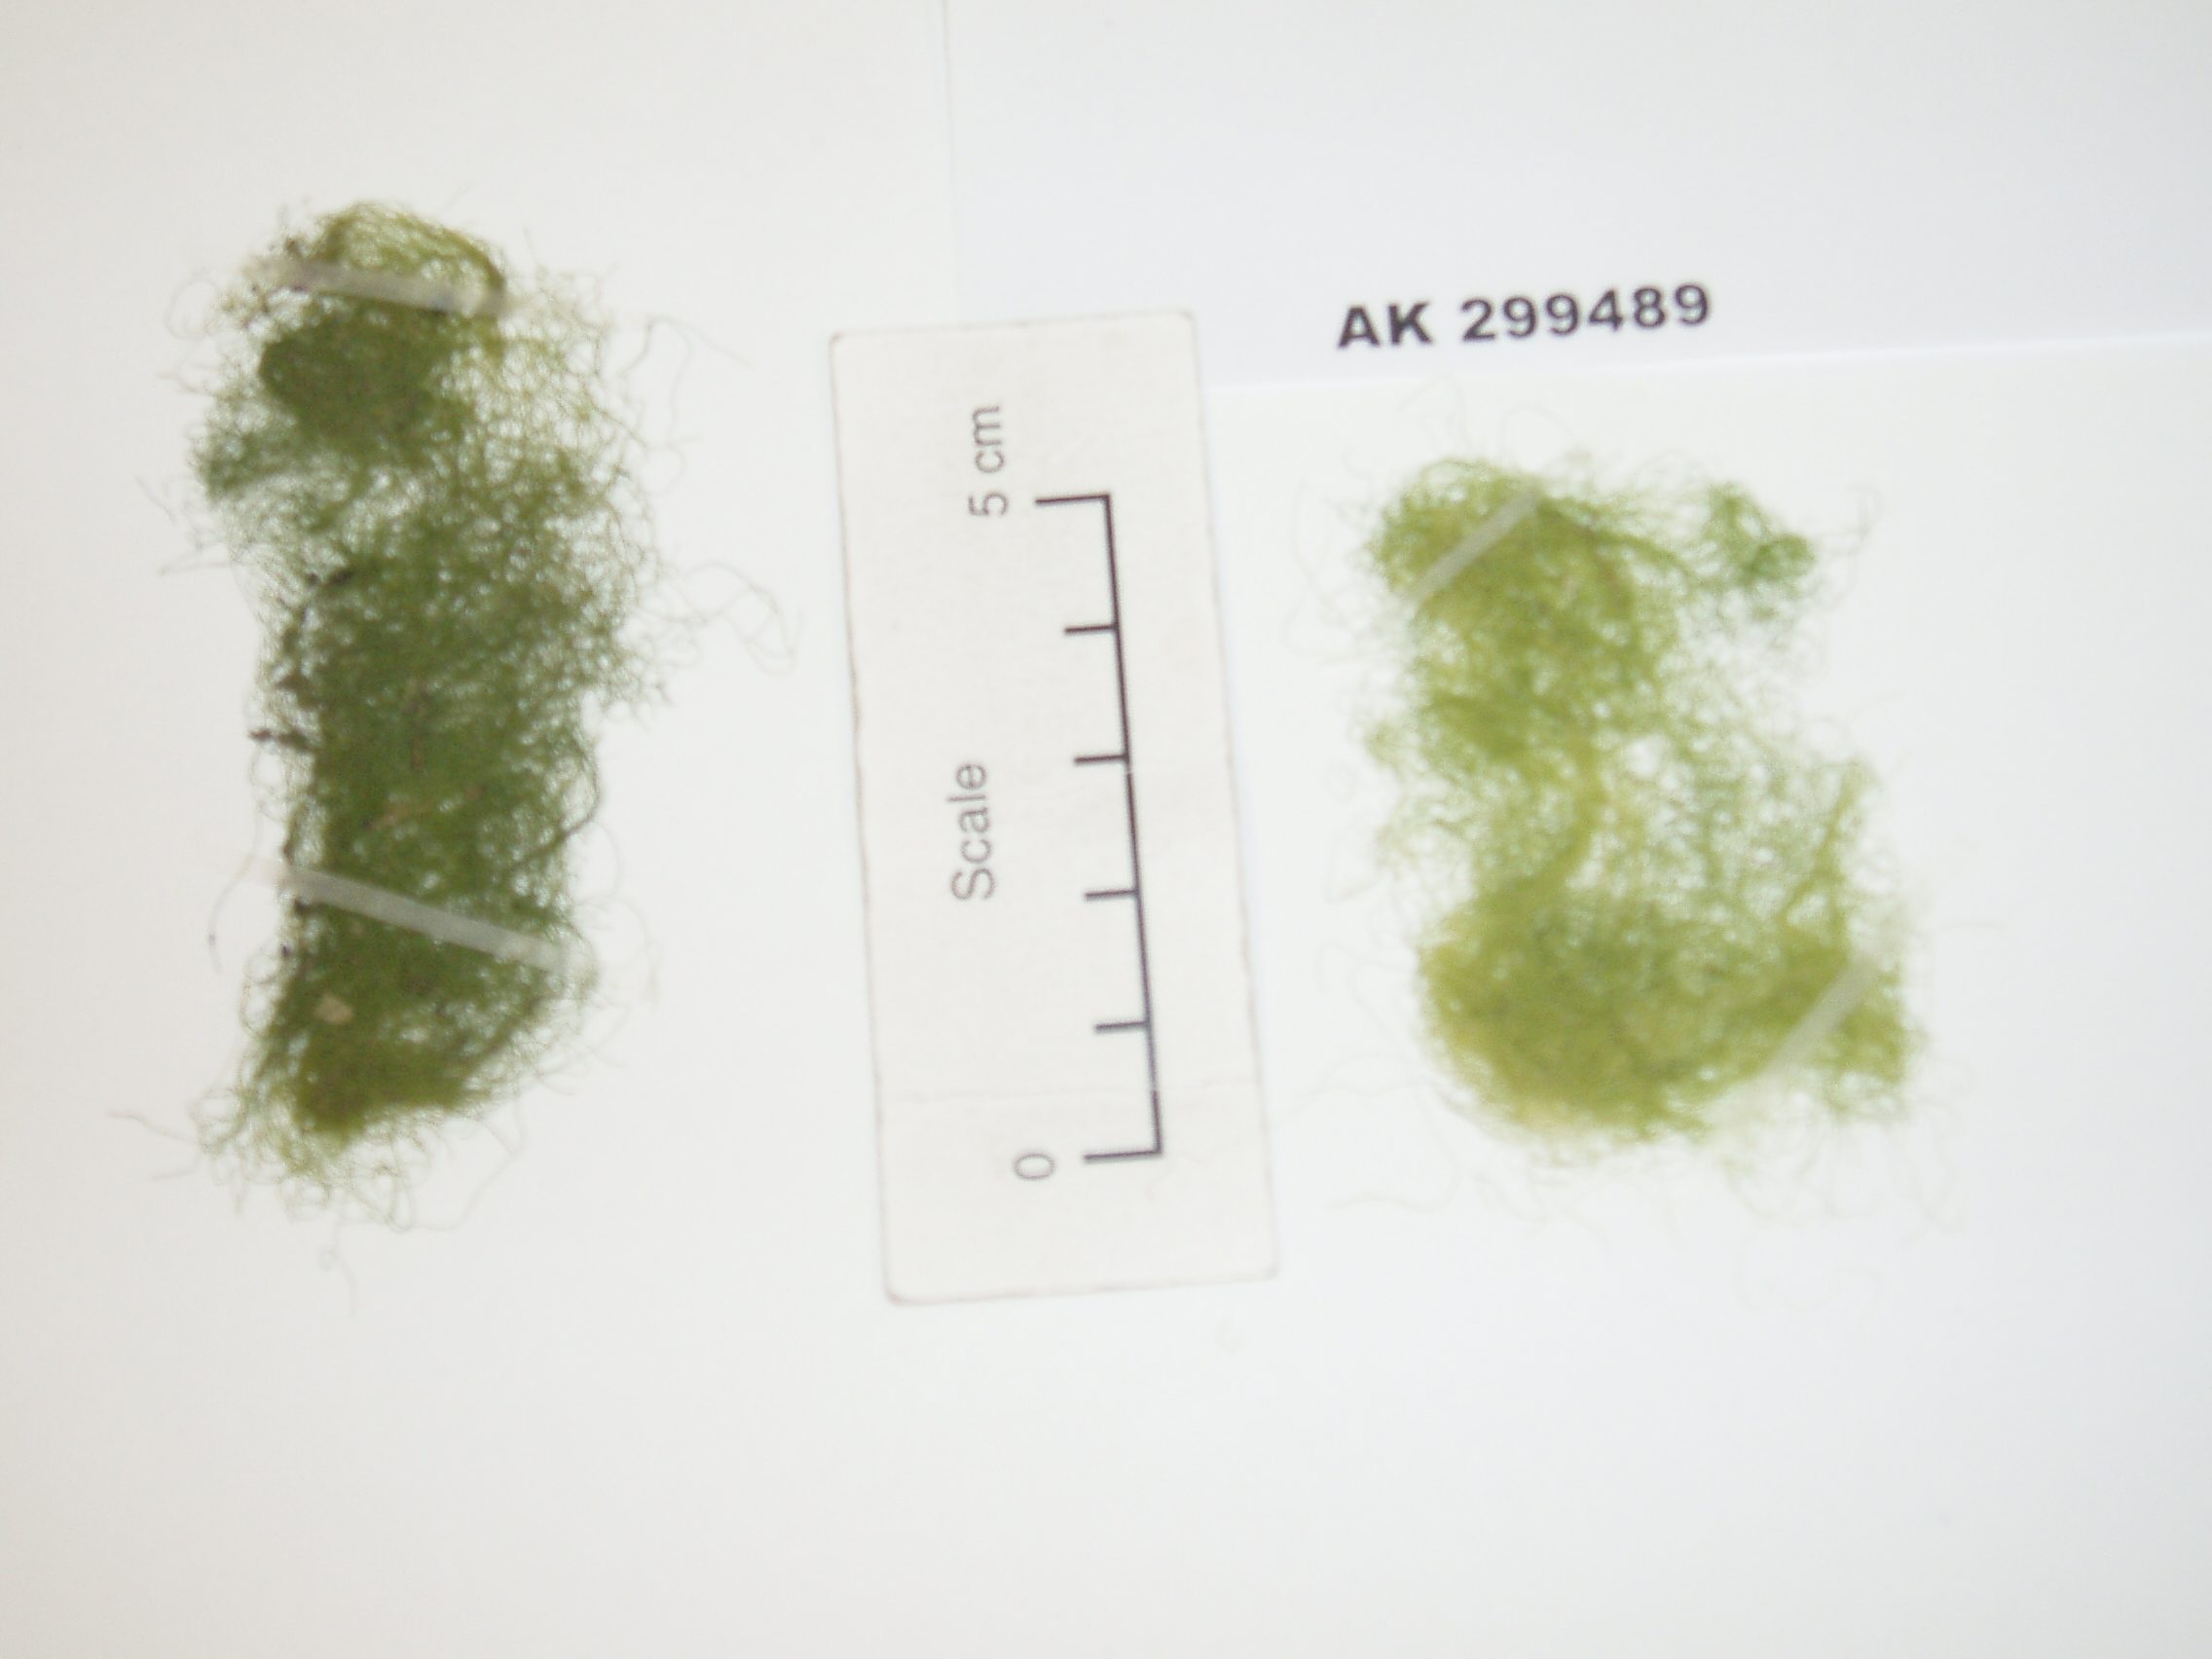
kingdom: Plantae
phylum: Chlorophyta
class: Ulvophyceae
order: Cladophorales
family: Cladophoraceae
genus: Chaetomorpha
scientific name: Chaetomorpha ligustica
